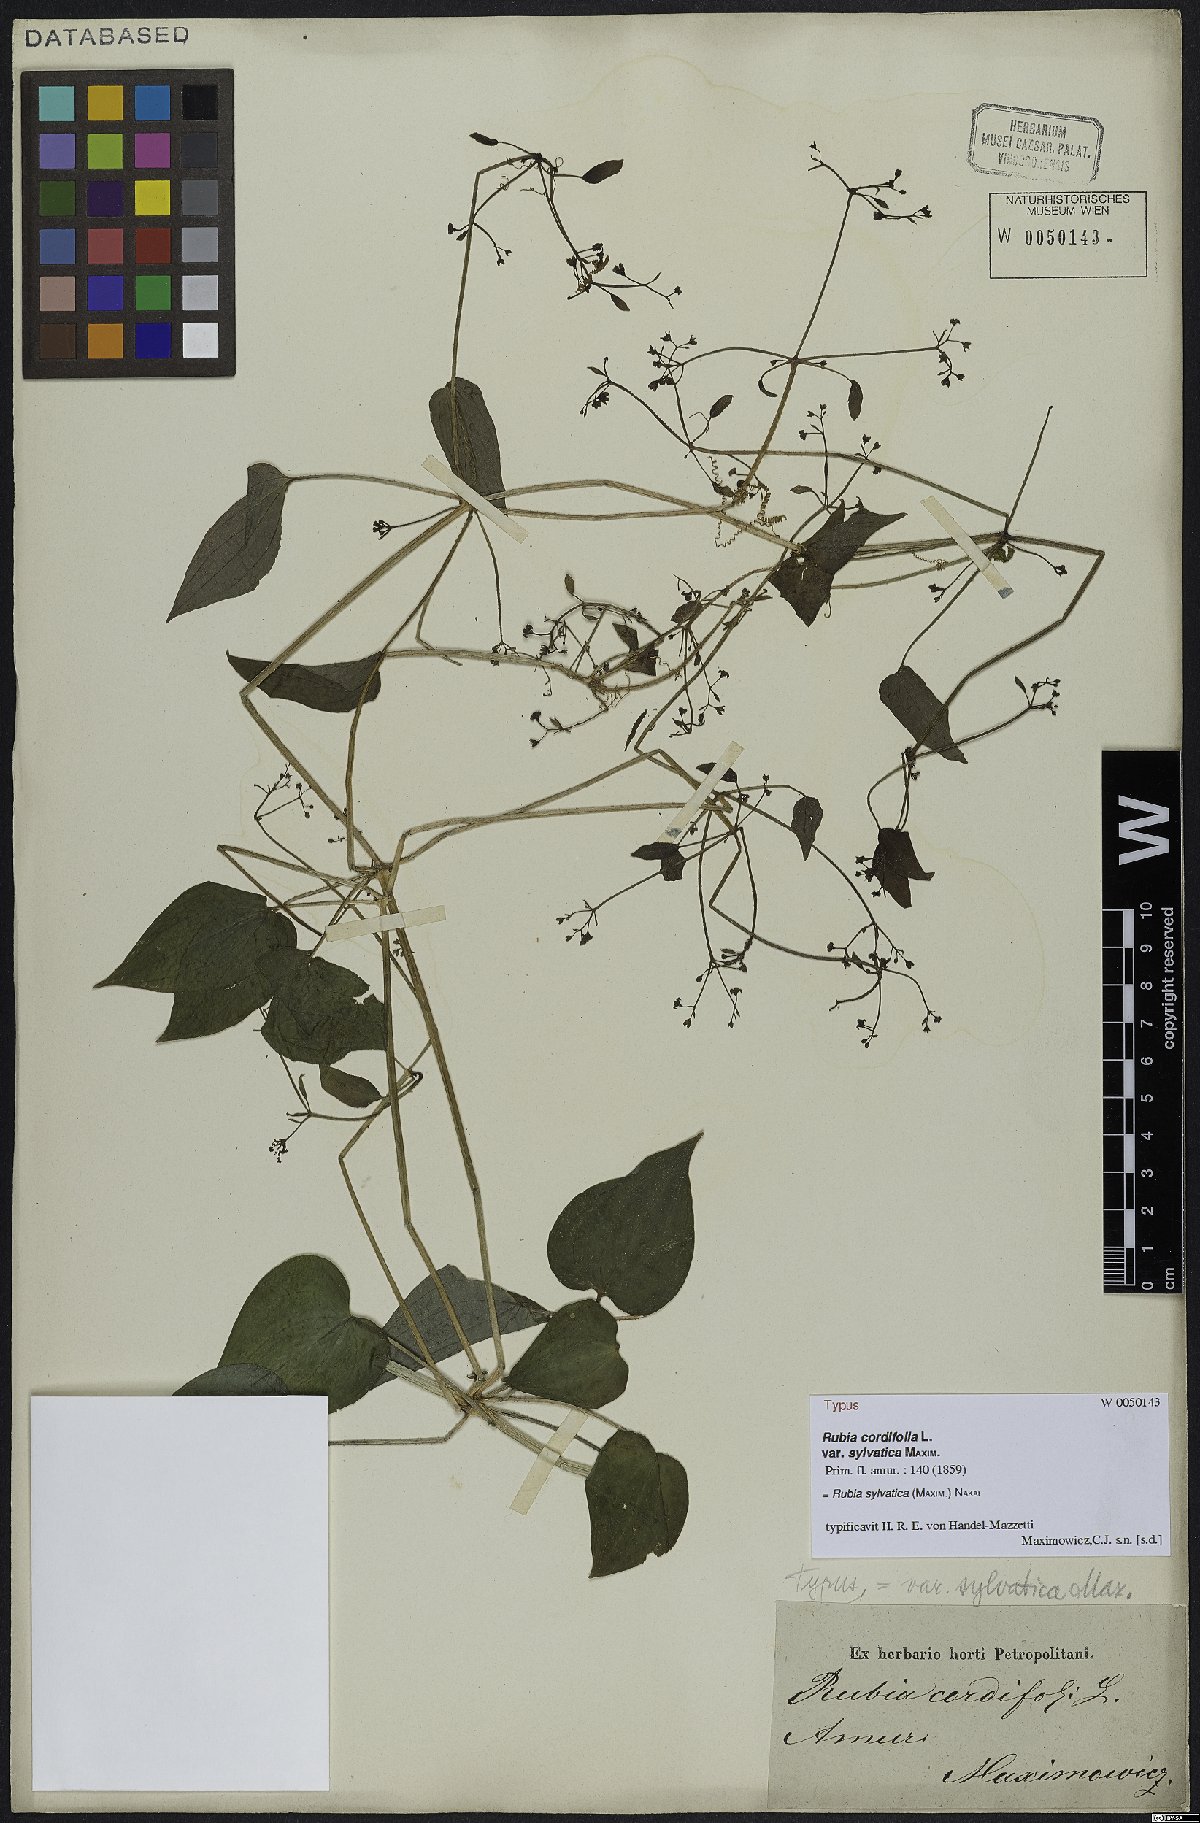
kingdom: Plantae
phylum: Tracheophyta
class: Magnoliopsida
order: Gentianales
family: Rubiaceae
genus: Rubia
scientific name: Rubia sylvatica
